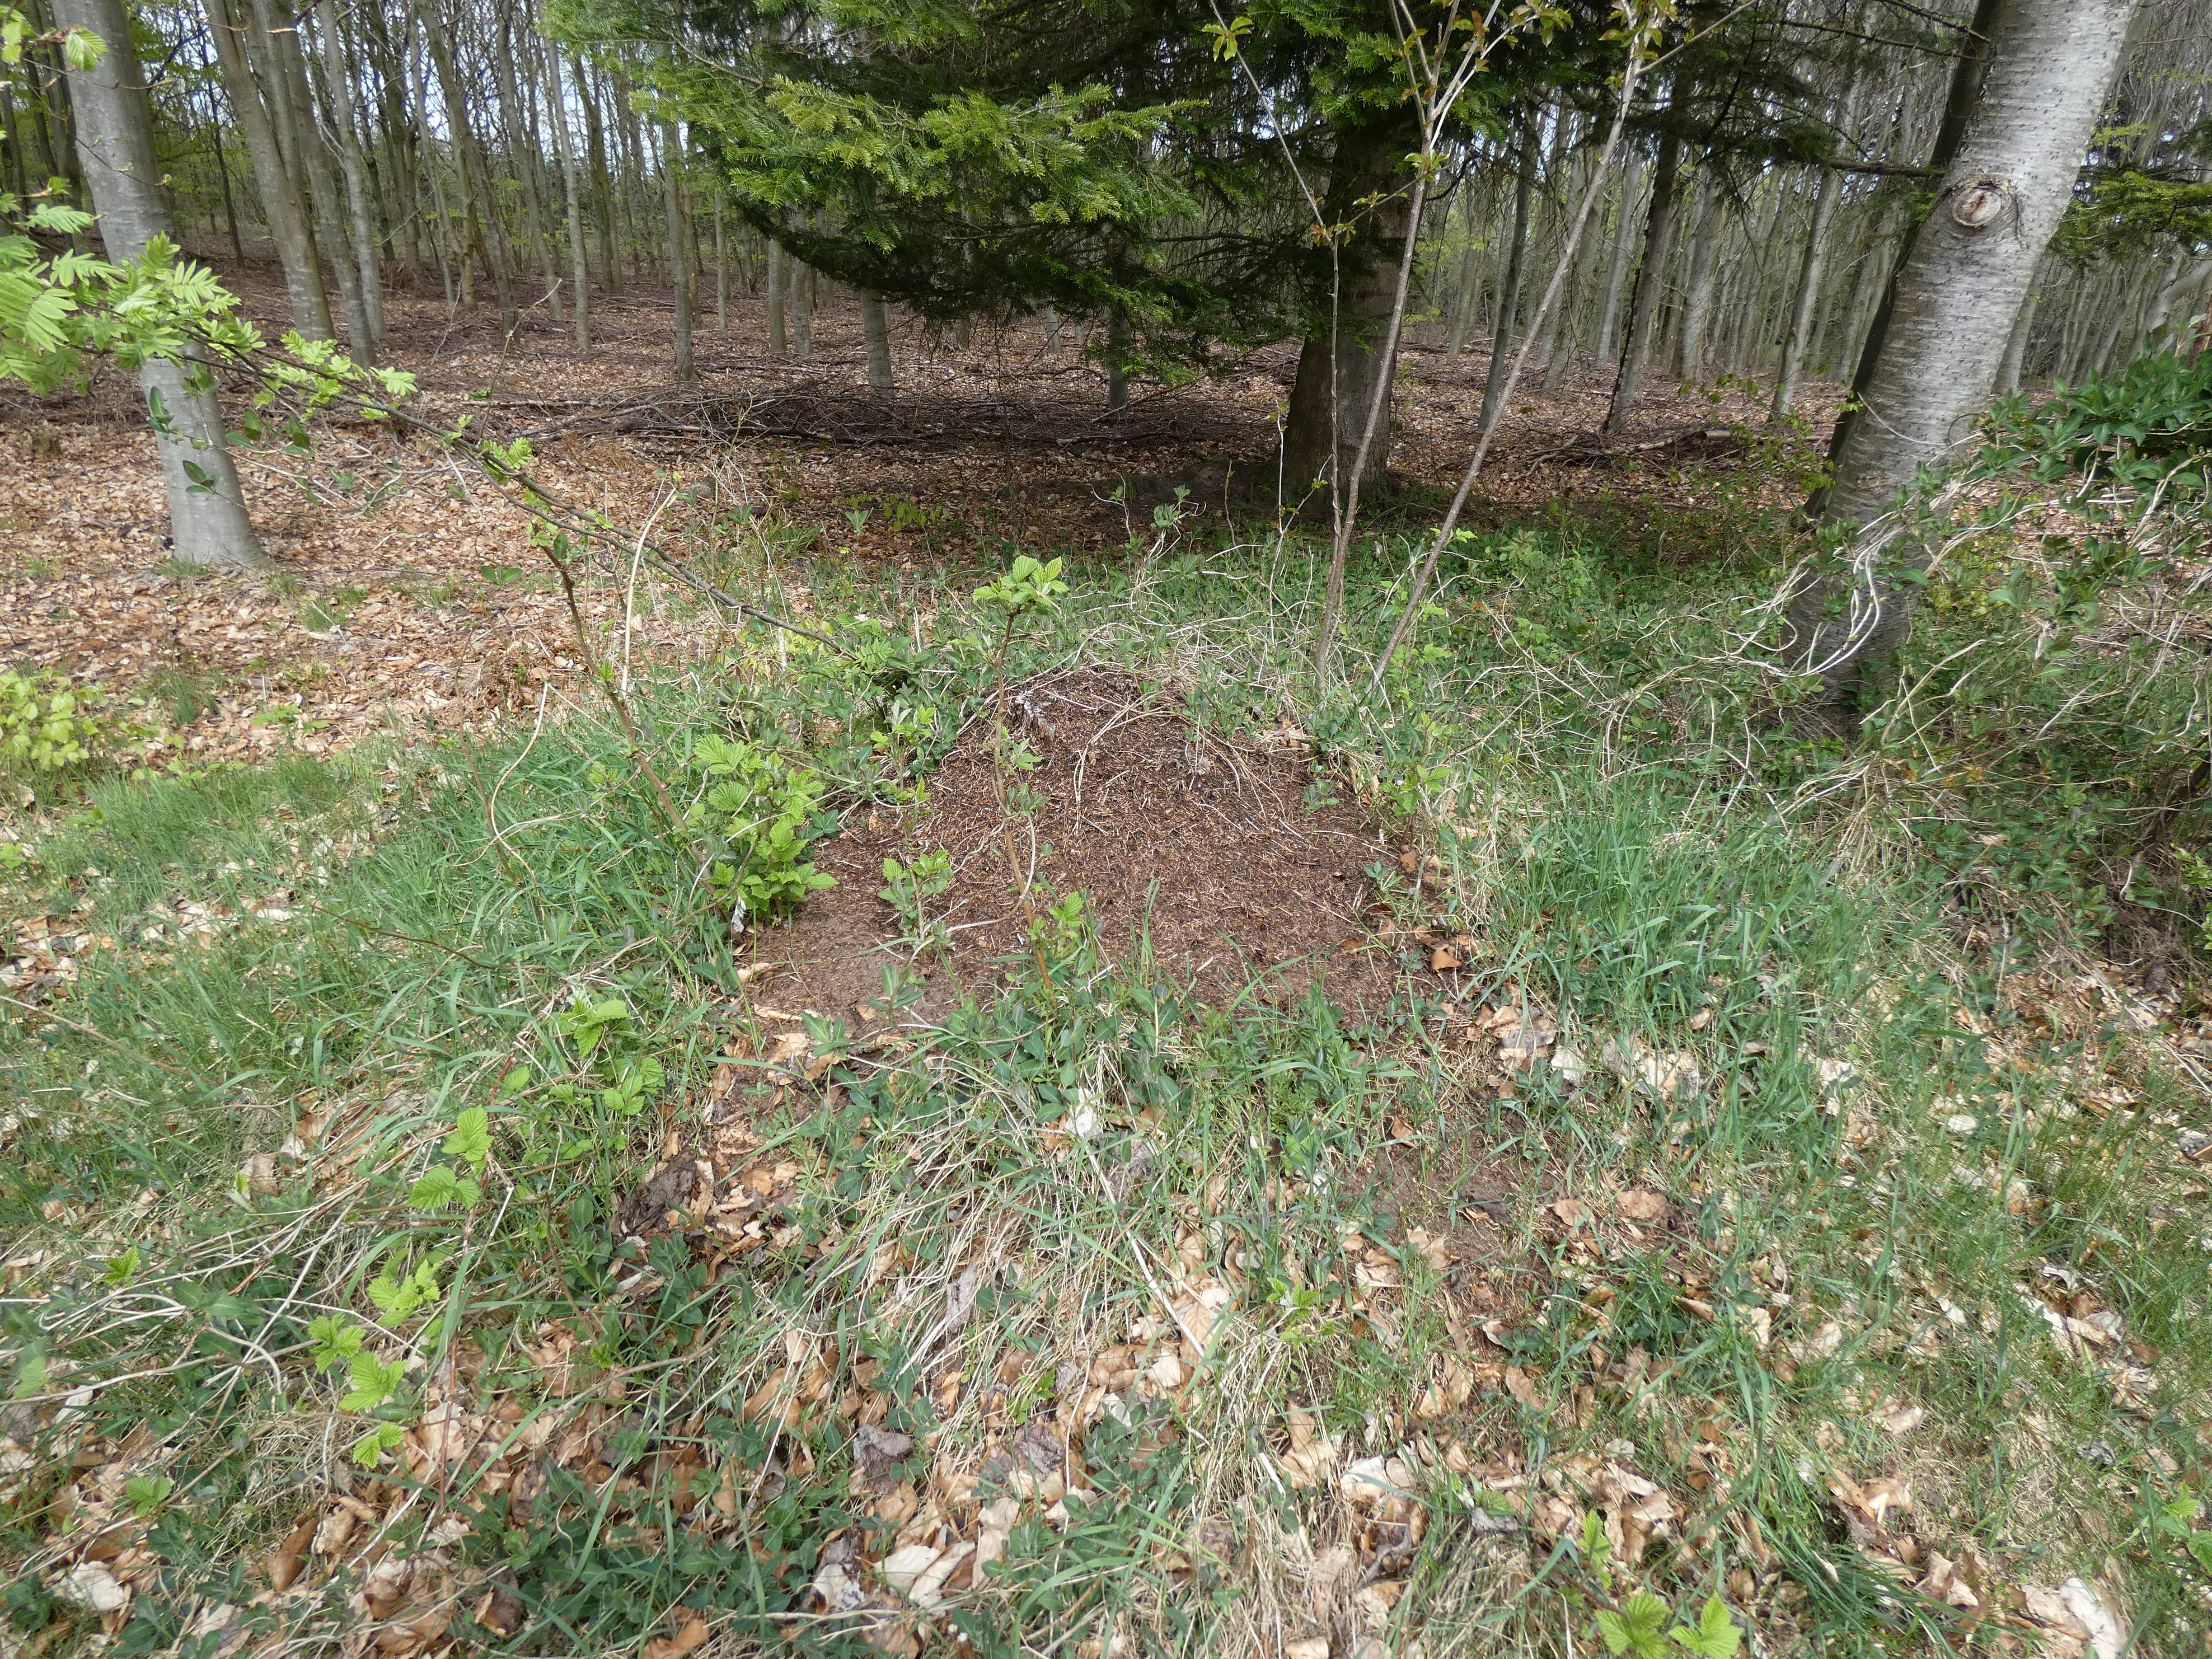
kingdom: Plantae
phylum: Tracheophyta
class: Magnoliopsida
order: Dipsacales
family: Caprifoliaceae
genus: Lonicera
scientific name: Lonicera periclymenum
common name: Almindelig gedeblad
